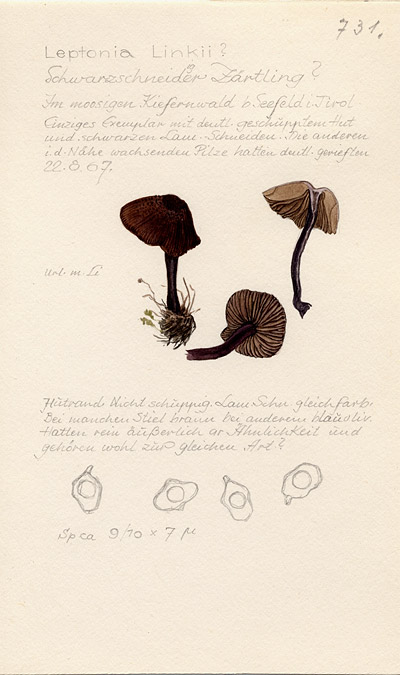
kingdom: Fungi
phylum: Basidiomycota
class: Agaricomycetes
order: Agaricales
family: Entolomataceae
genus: Entoloma
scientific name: Entoloma linkii
